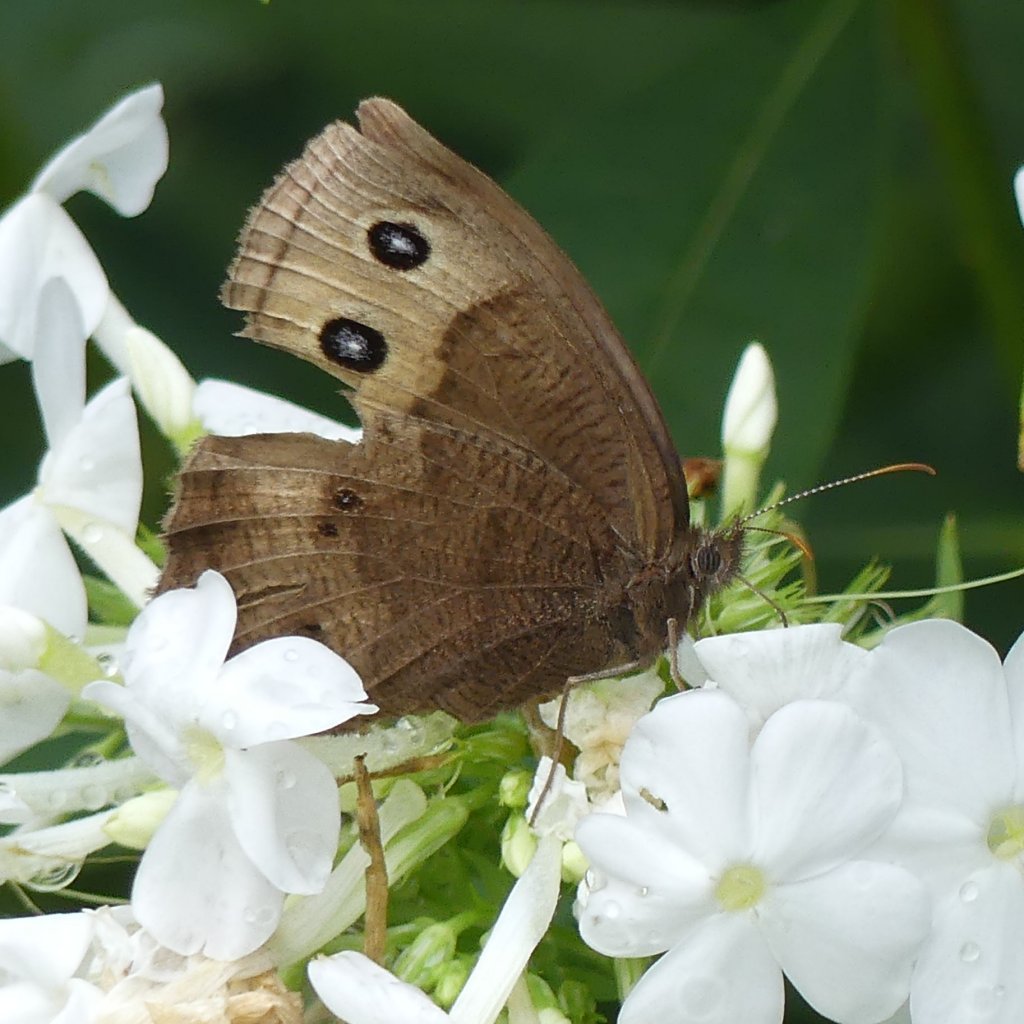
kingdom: Animalia
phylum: Arthropoda
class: Insecta
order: Lepidoptera
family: Nymphalidae
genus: Cercyonis
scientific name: Cercyonis pegala
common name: Common Wood-Nymph
